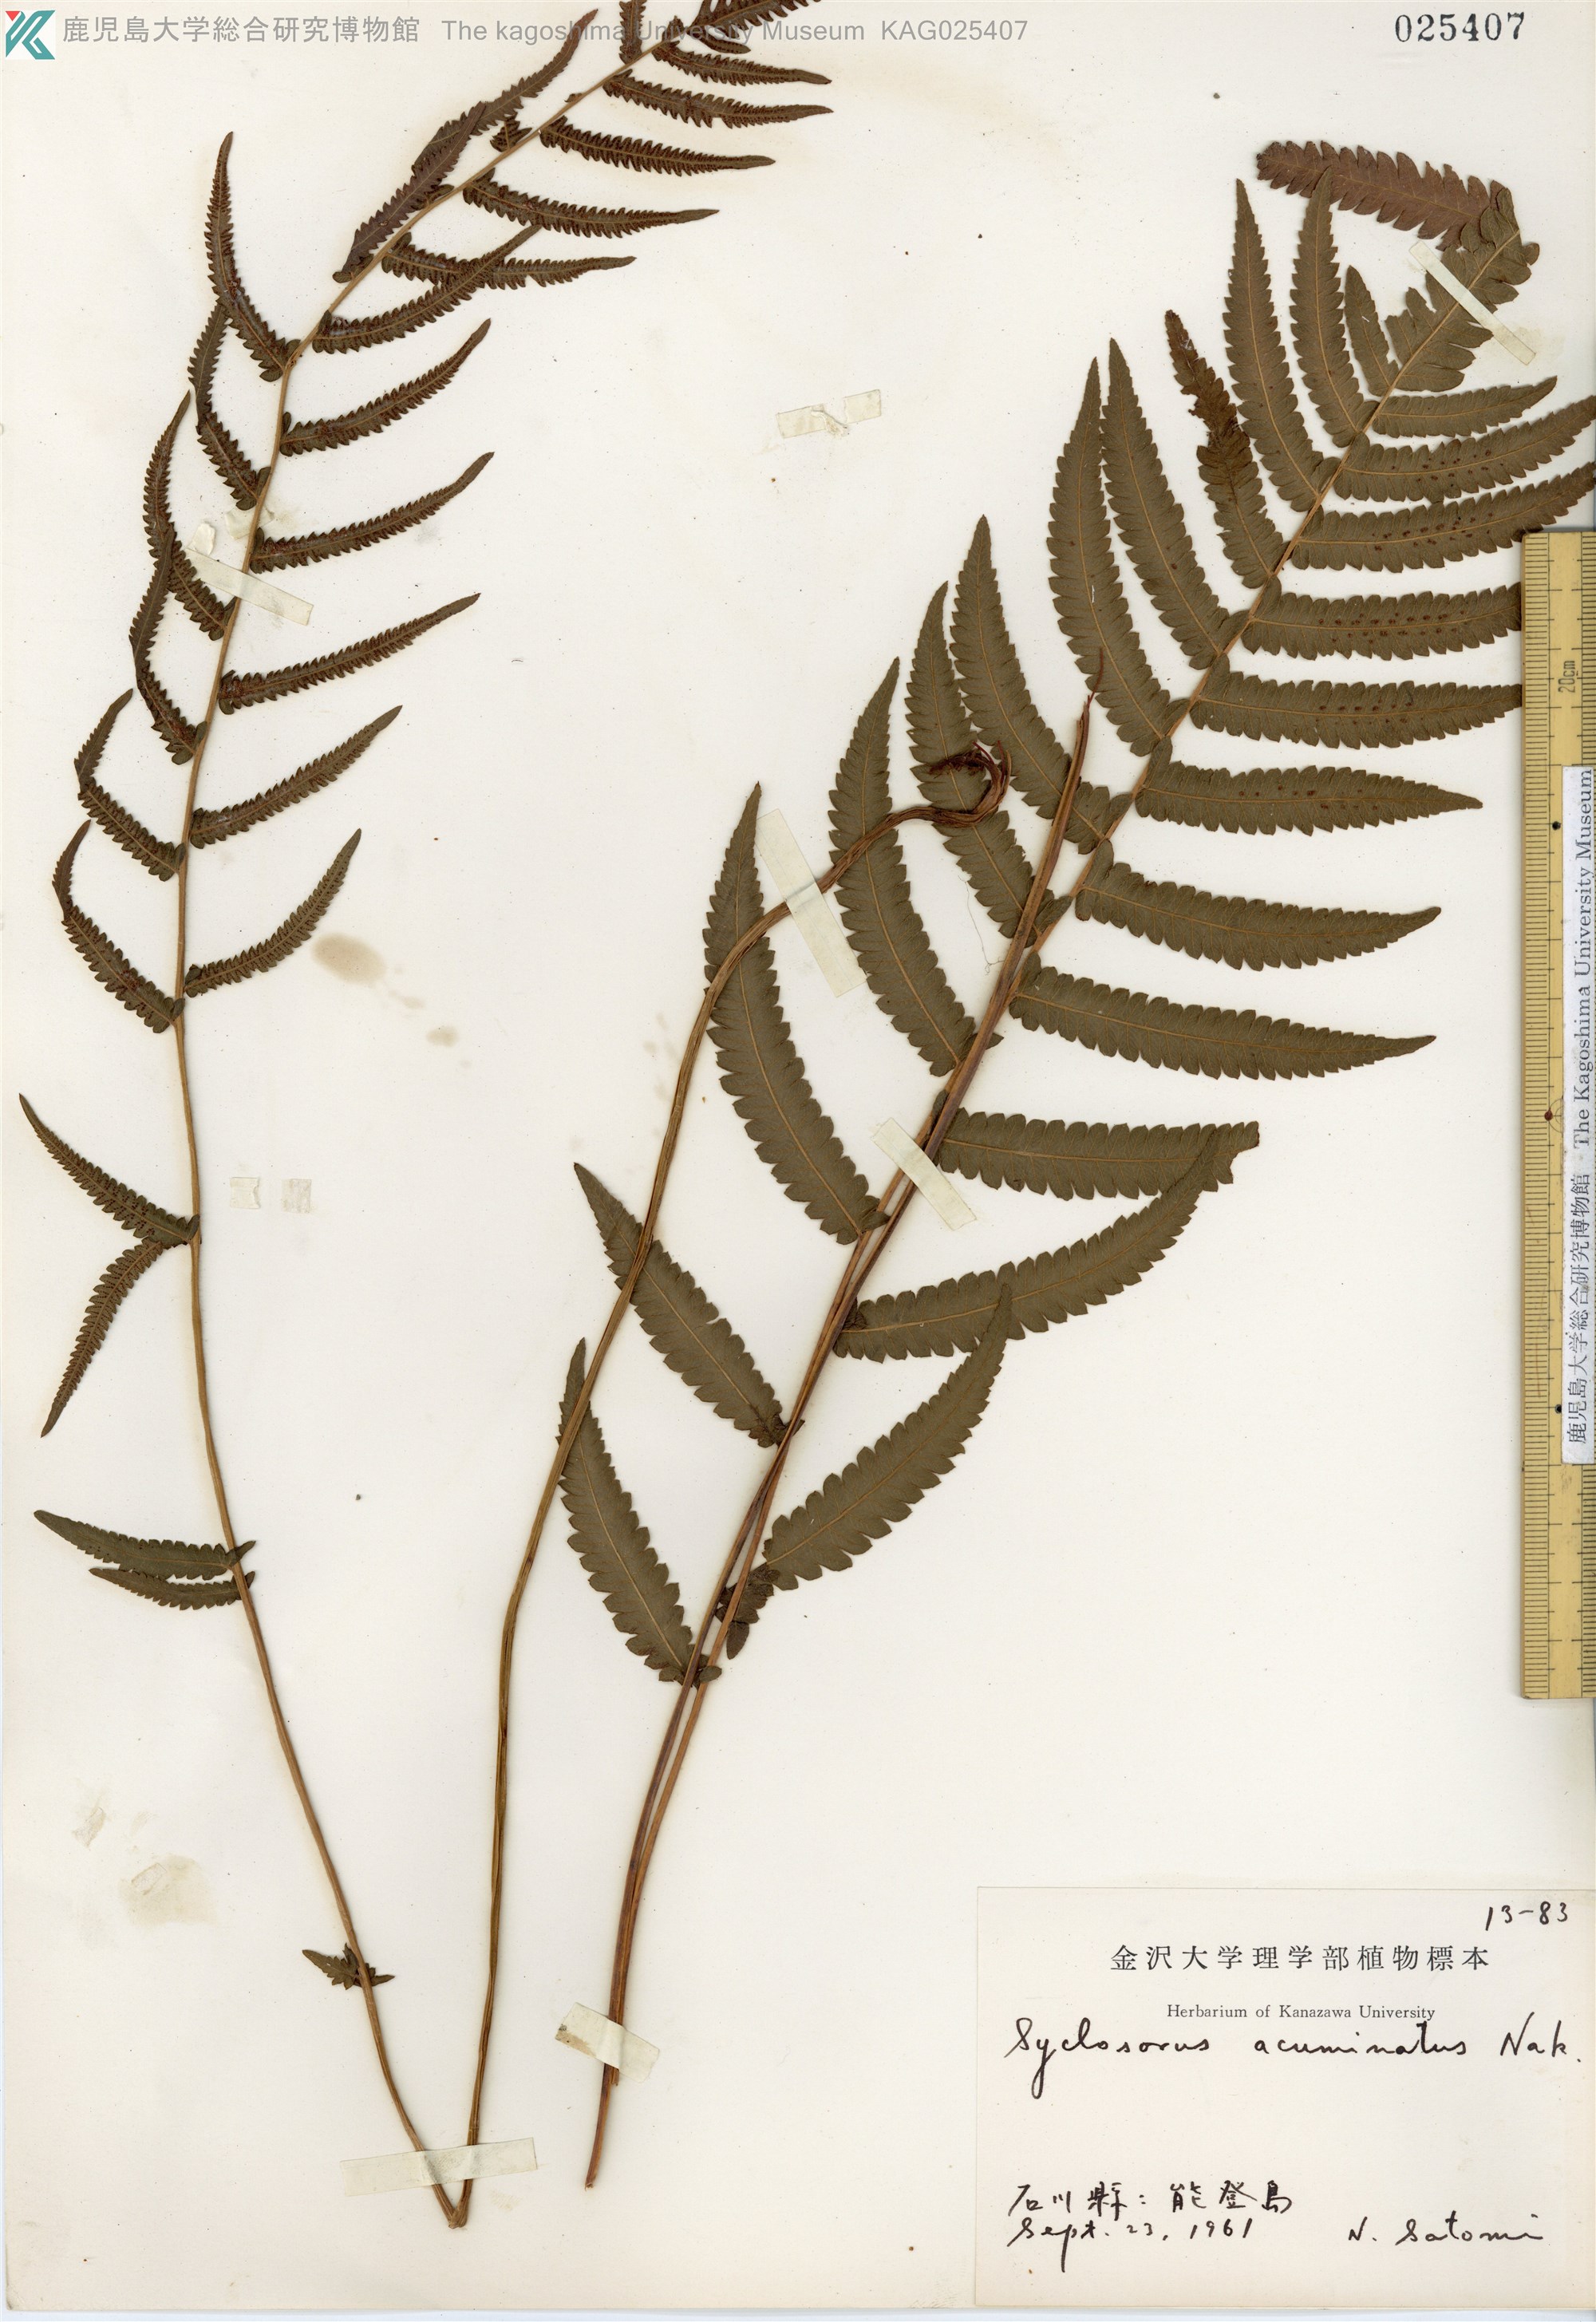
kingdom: Plantae
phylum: Tracheophyta
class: Polypodiopsida
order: Polypodiales
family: Thelypteridaceae
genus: Christella
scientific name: Christella acuminata
